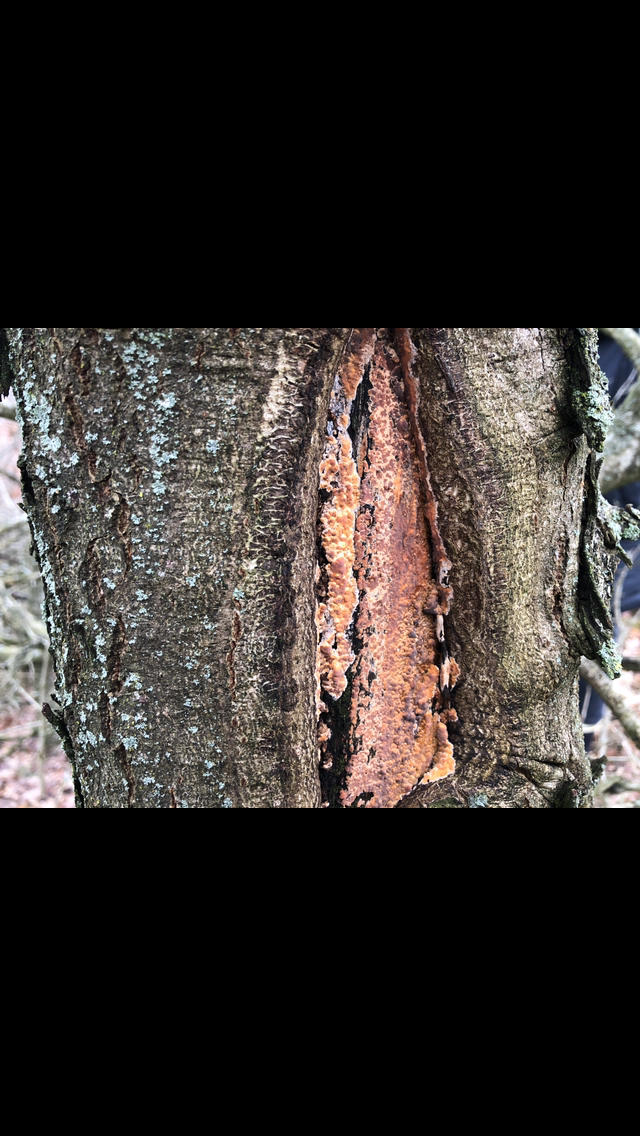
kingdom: Fungi
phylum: Basidiomycota
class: Agaricomycetes
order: Russulales
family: Peniophoraceae
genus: Peniophora
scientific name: Peniophora incarnata
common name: laksefarvet voksskind
